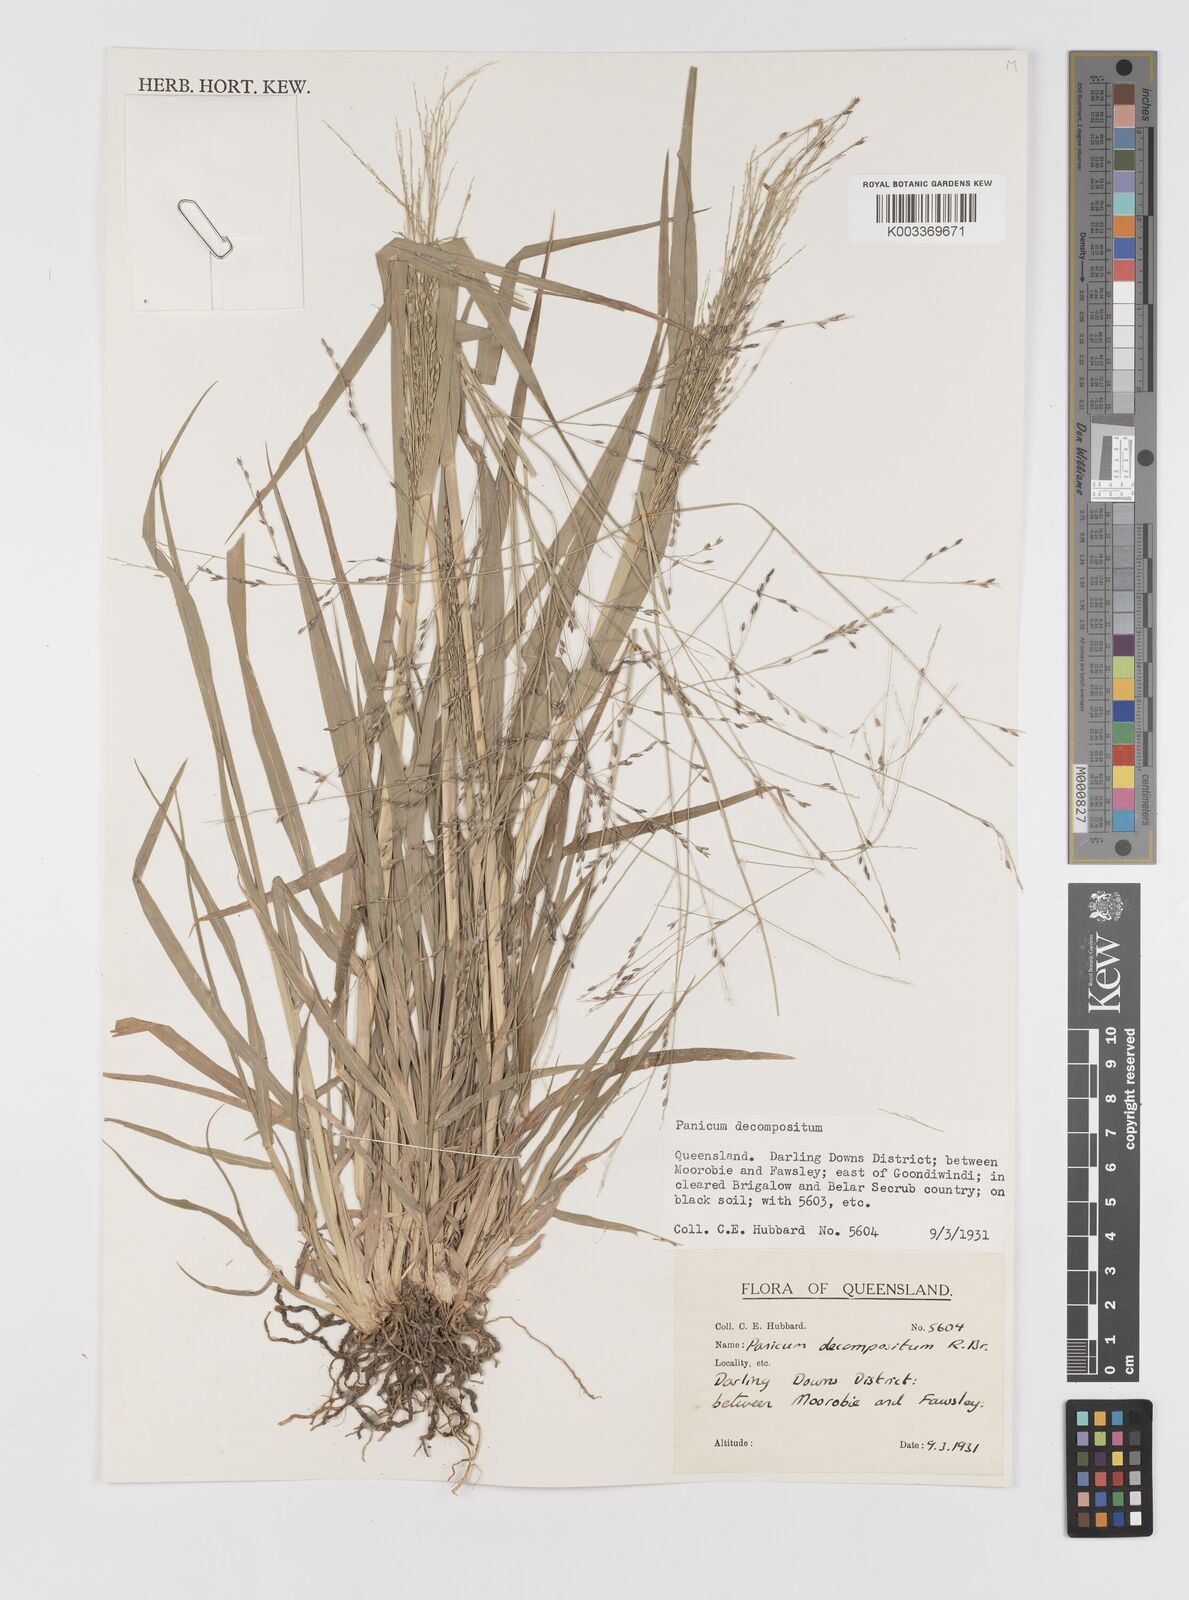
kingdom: Plantae
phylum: Tracheophyta
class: Liliopsida
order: Poales
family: Poaceae
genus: Panicum
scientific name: Panicum decompositum
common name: Australian millet
